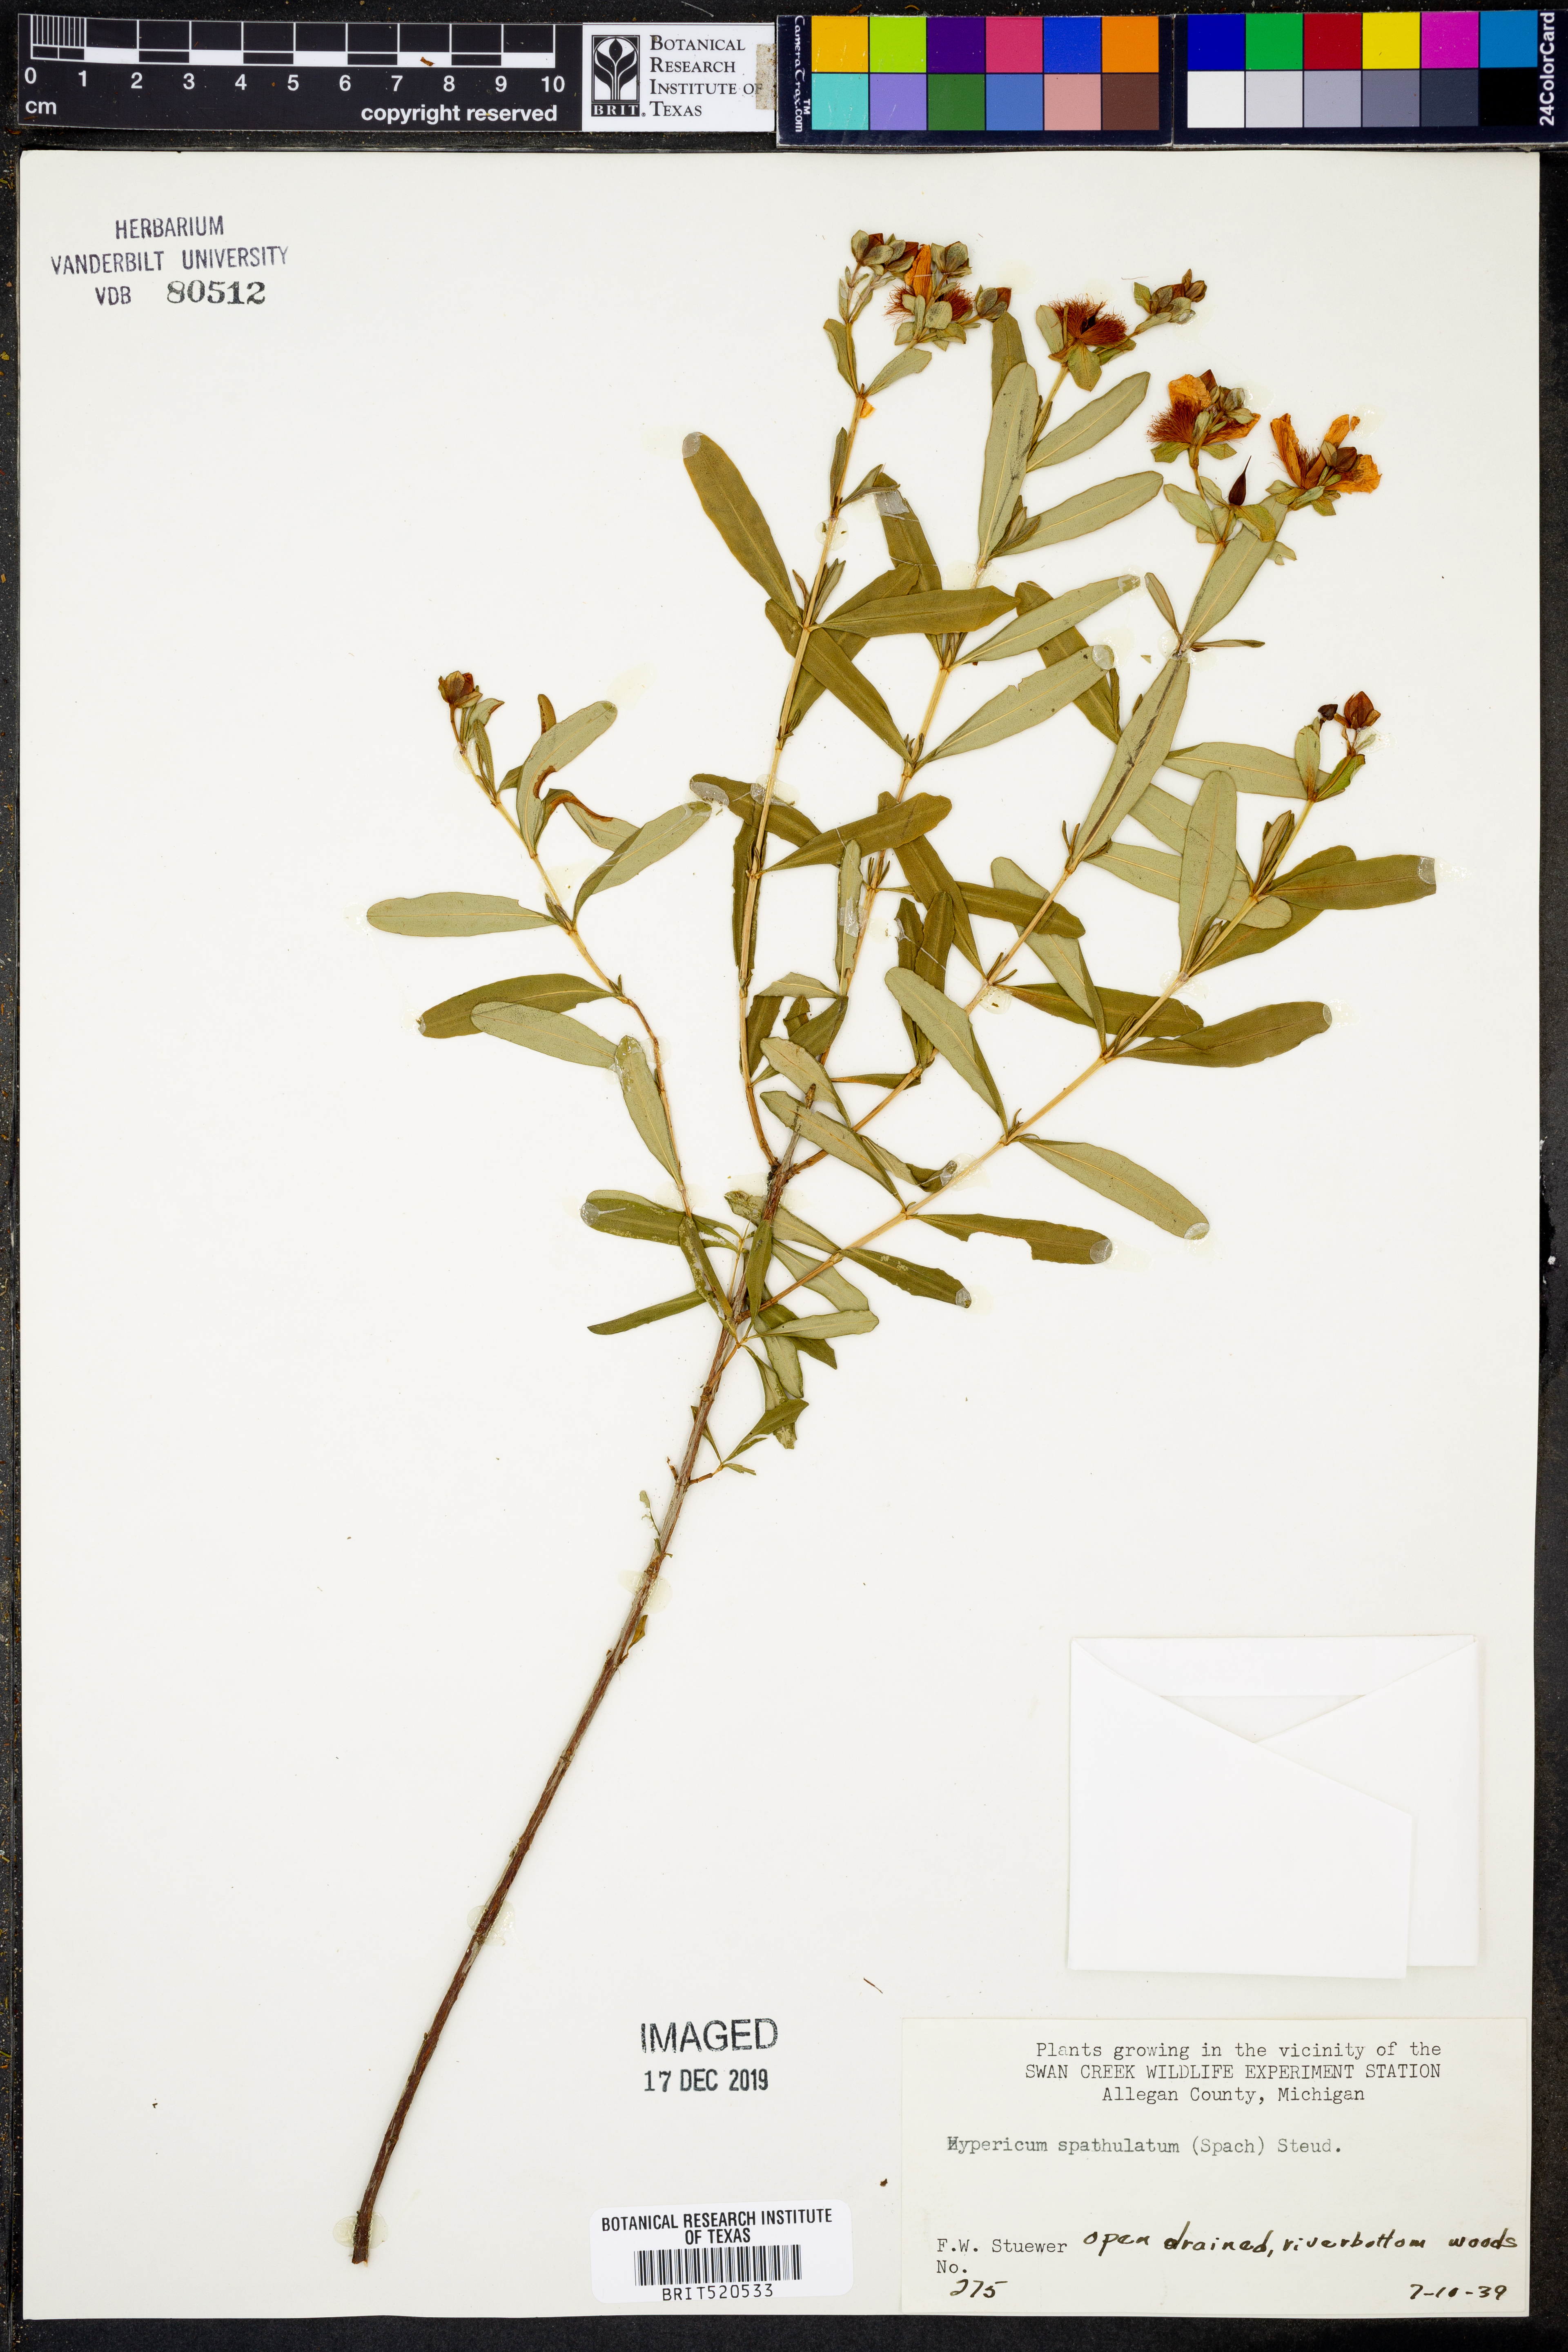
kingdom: Plantae
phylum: Tracheophyta
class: Magnoliopsida
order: Malpighiales
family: Hypericaceae
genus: Hypericum
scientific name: Hypericum
